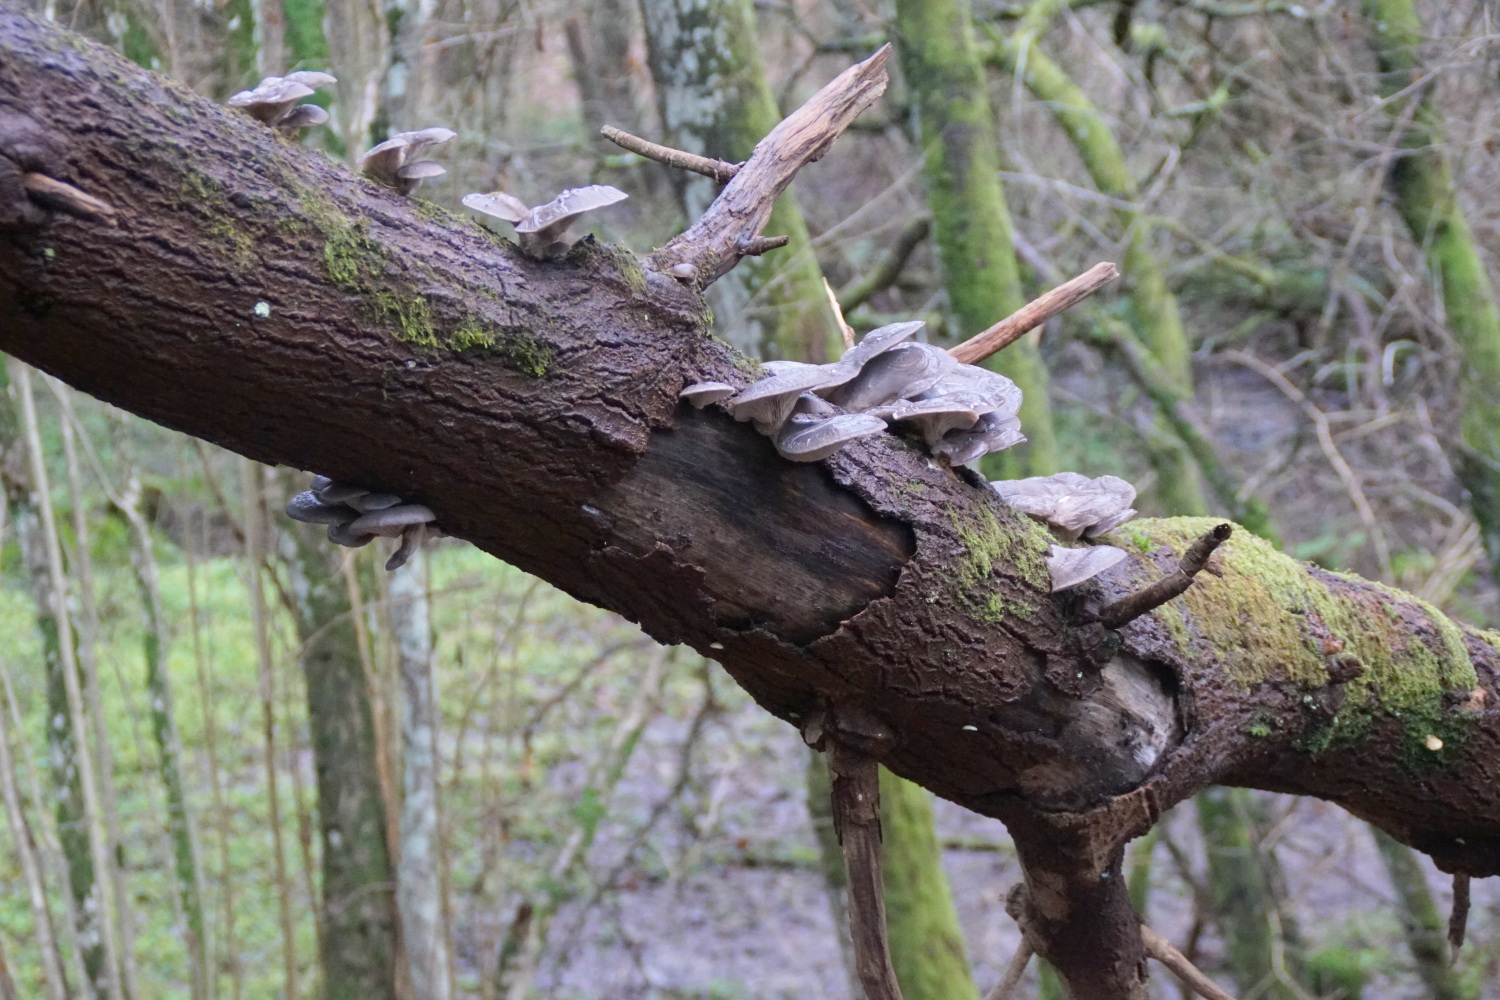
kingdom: Fungi
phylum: Basidiomycota
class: Agaricomycetes
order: Agaricales
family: Pleurotaceae
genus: Pleurotus
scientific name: Pleurotus ostreatus
